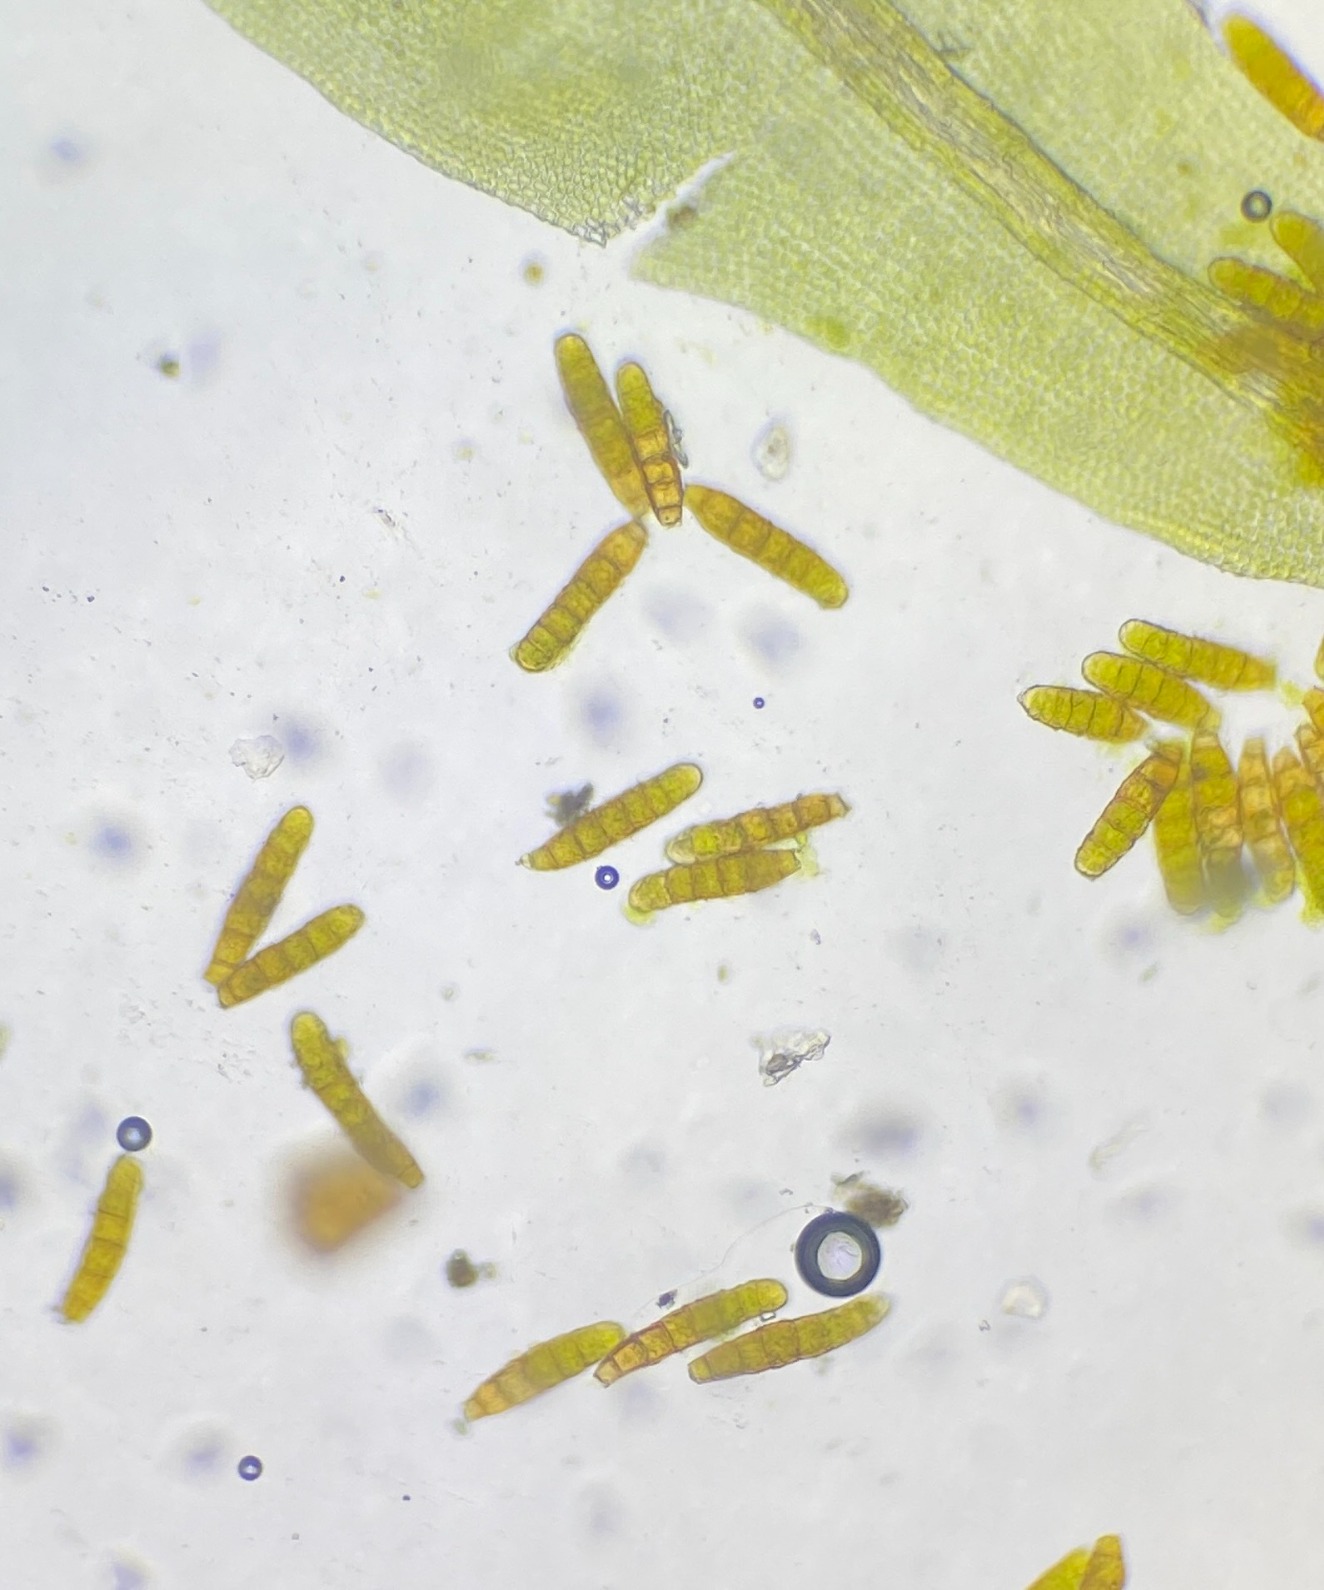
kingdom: Plantae
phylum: Bryophyta
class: Bryopsida
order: Orthotrichales
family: Orthotrichaceae
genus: Plenogemma
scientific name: Plenogemma phyllantha
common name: Stor låddenhætte
